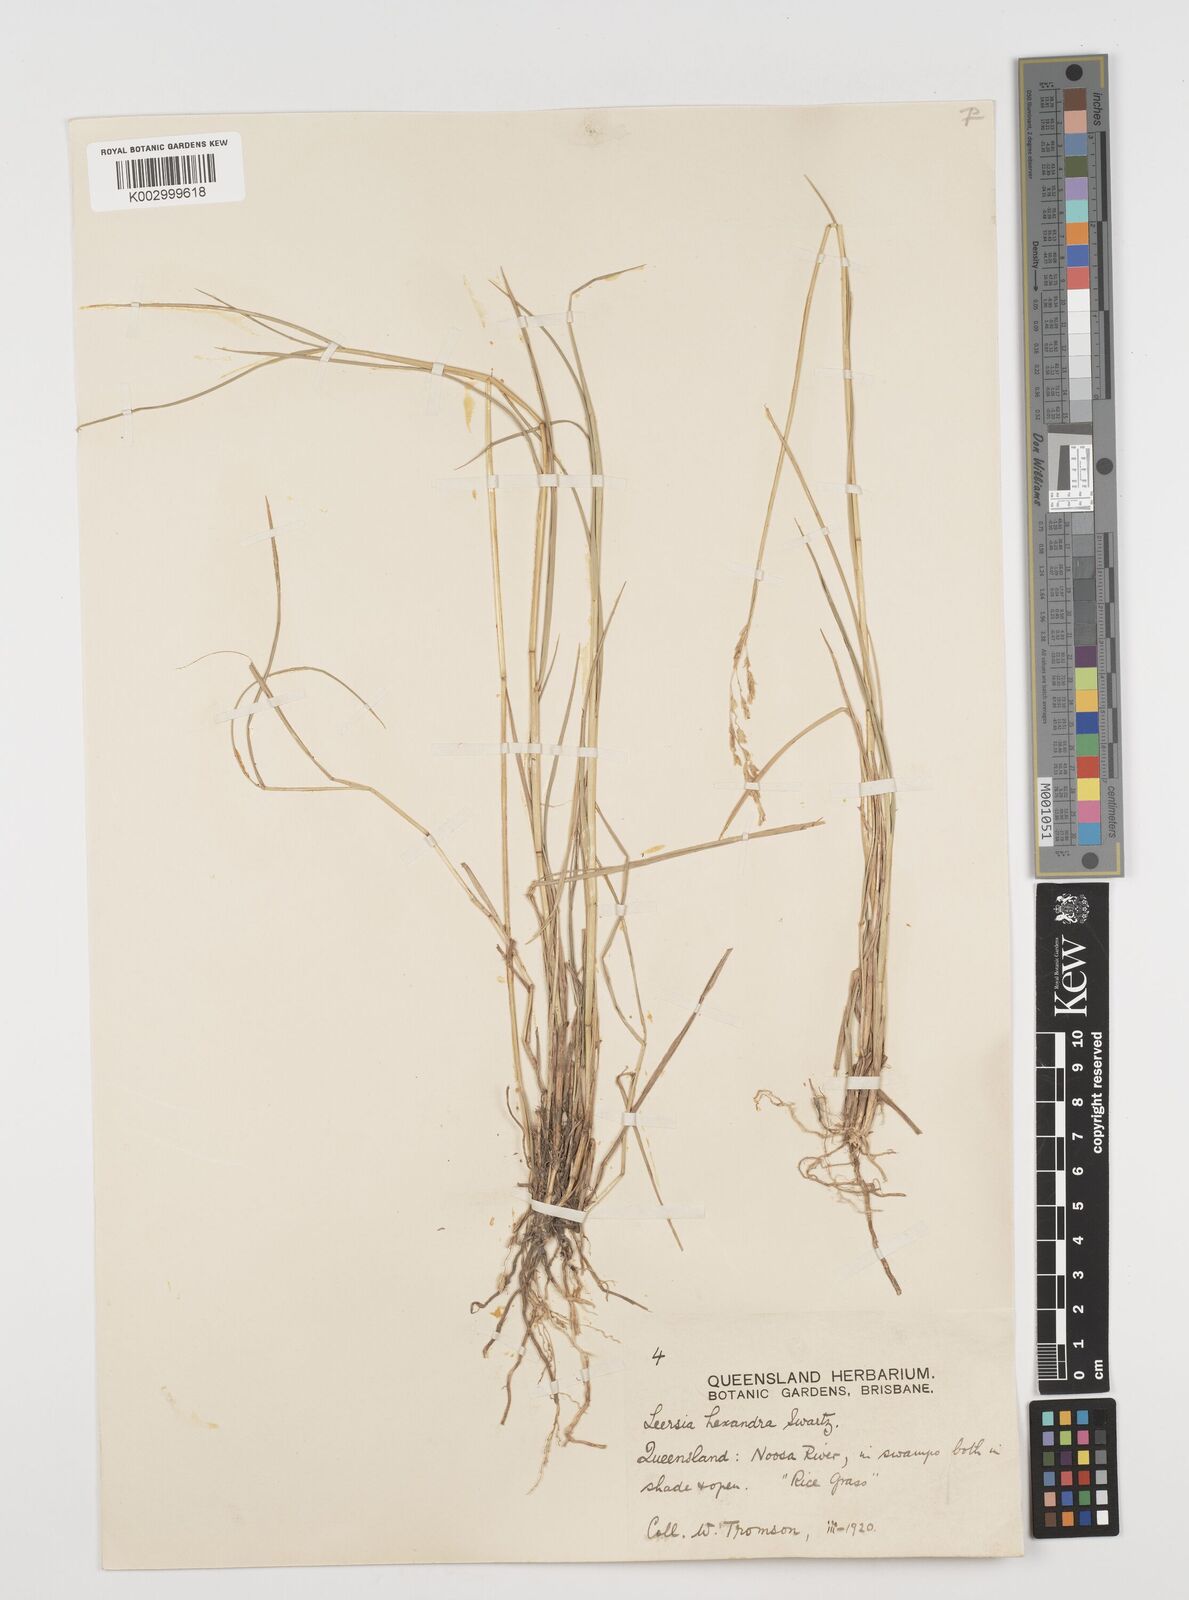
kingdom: Plantae
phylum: Tracheophyta
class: Liliopsida
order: Poales
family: Poaceae
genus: Leersia
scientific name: Leersia hexandra
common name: Southern cut grass
